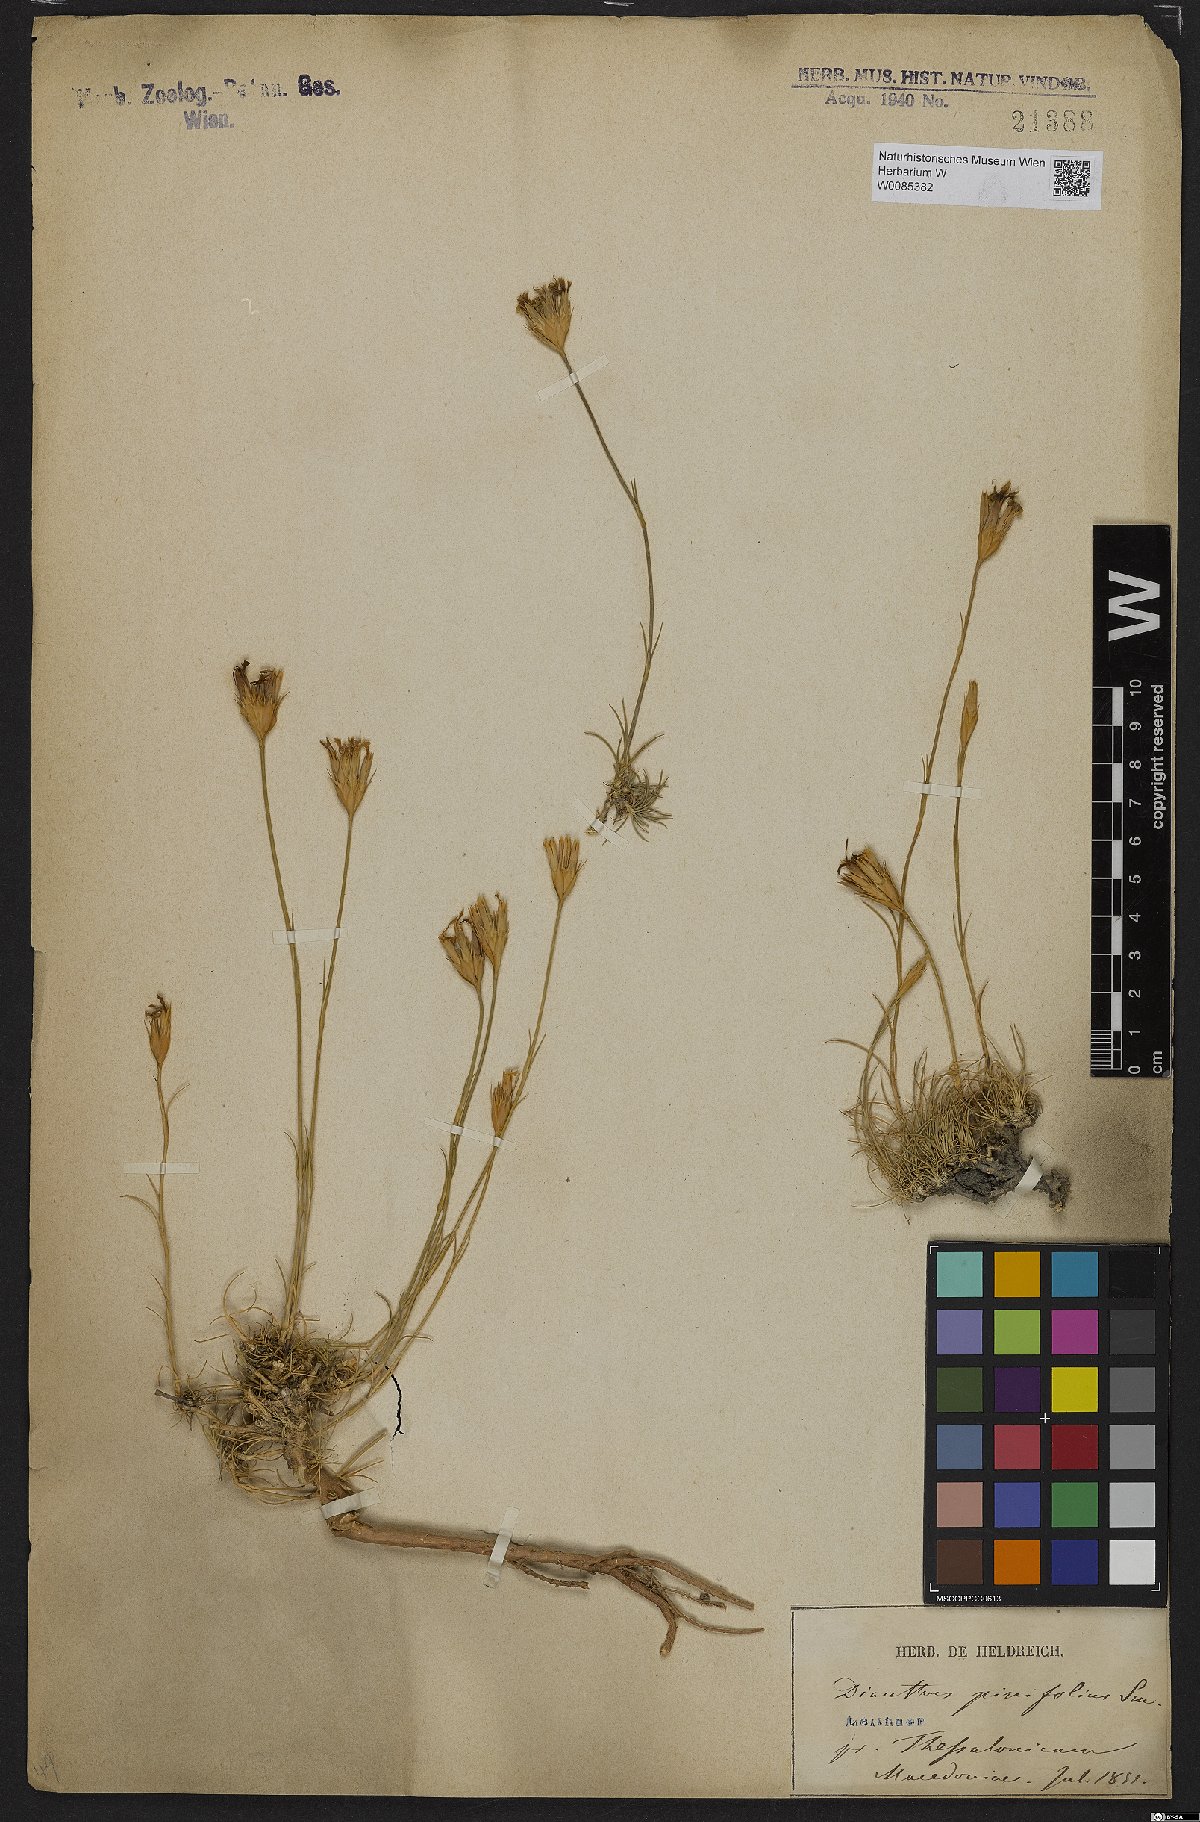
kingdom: Plantae
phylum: Tracheophyta
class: Magnoliopsida
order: Caryophyllales
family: Caryophyllaceae
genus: Dianthus
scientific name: Dianthus pinifolius
